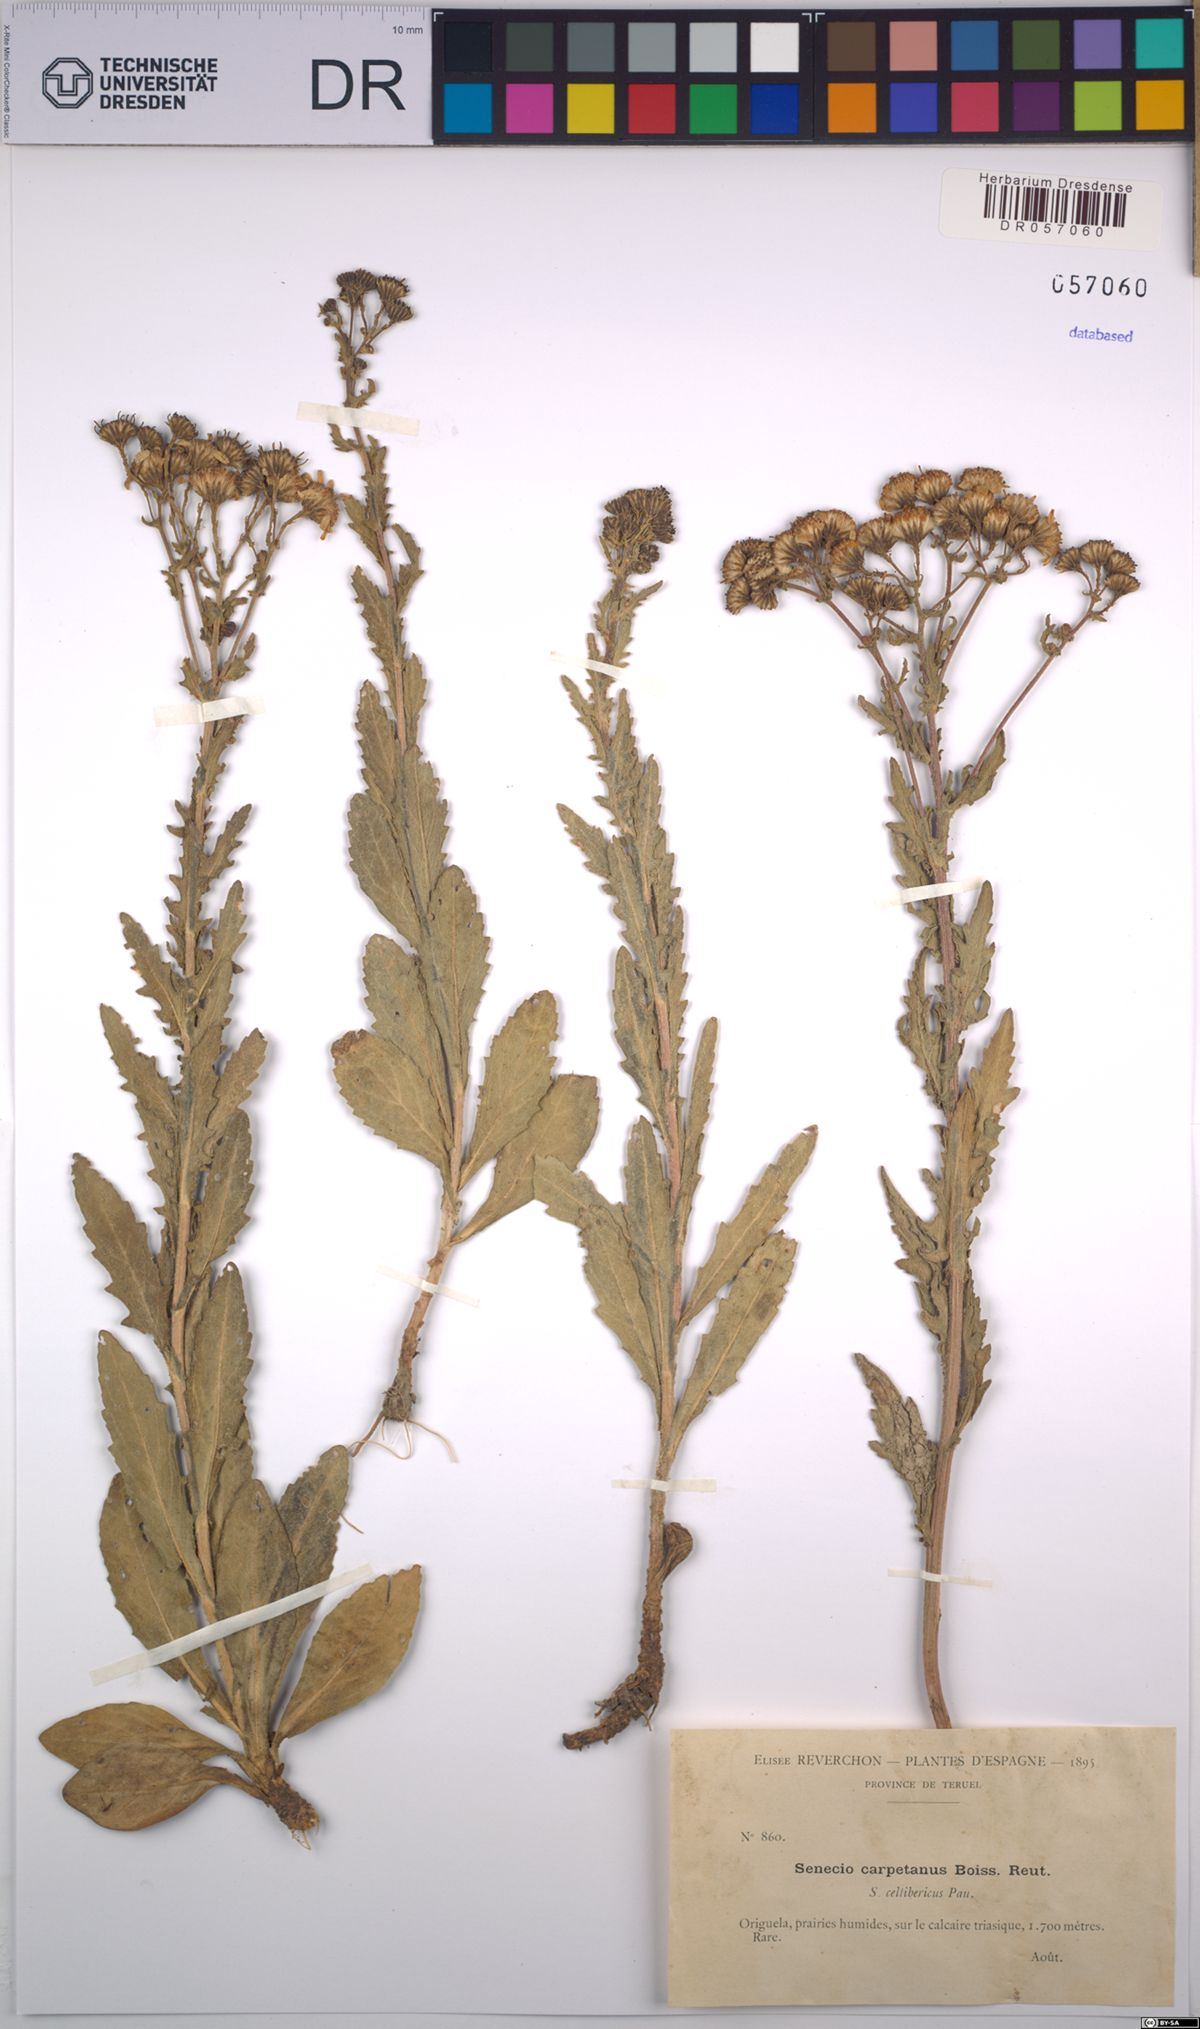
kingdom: Plantae
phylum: Tracheophyta
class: Magnoliopsida
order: Asterales
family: Asteraceae
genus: Senecio
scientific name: Senecio carpetanus
